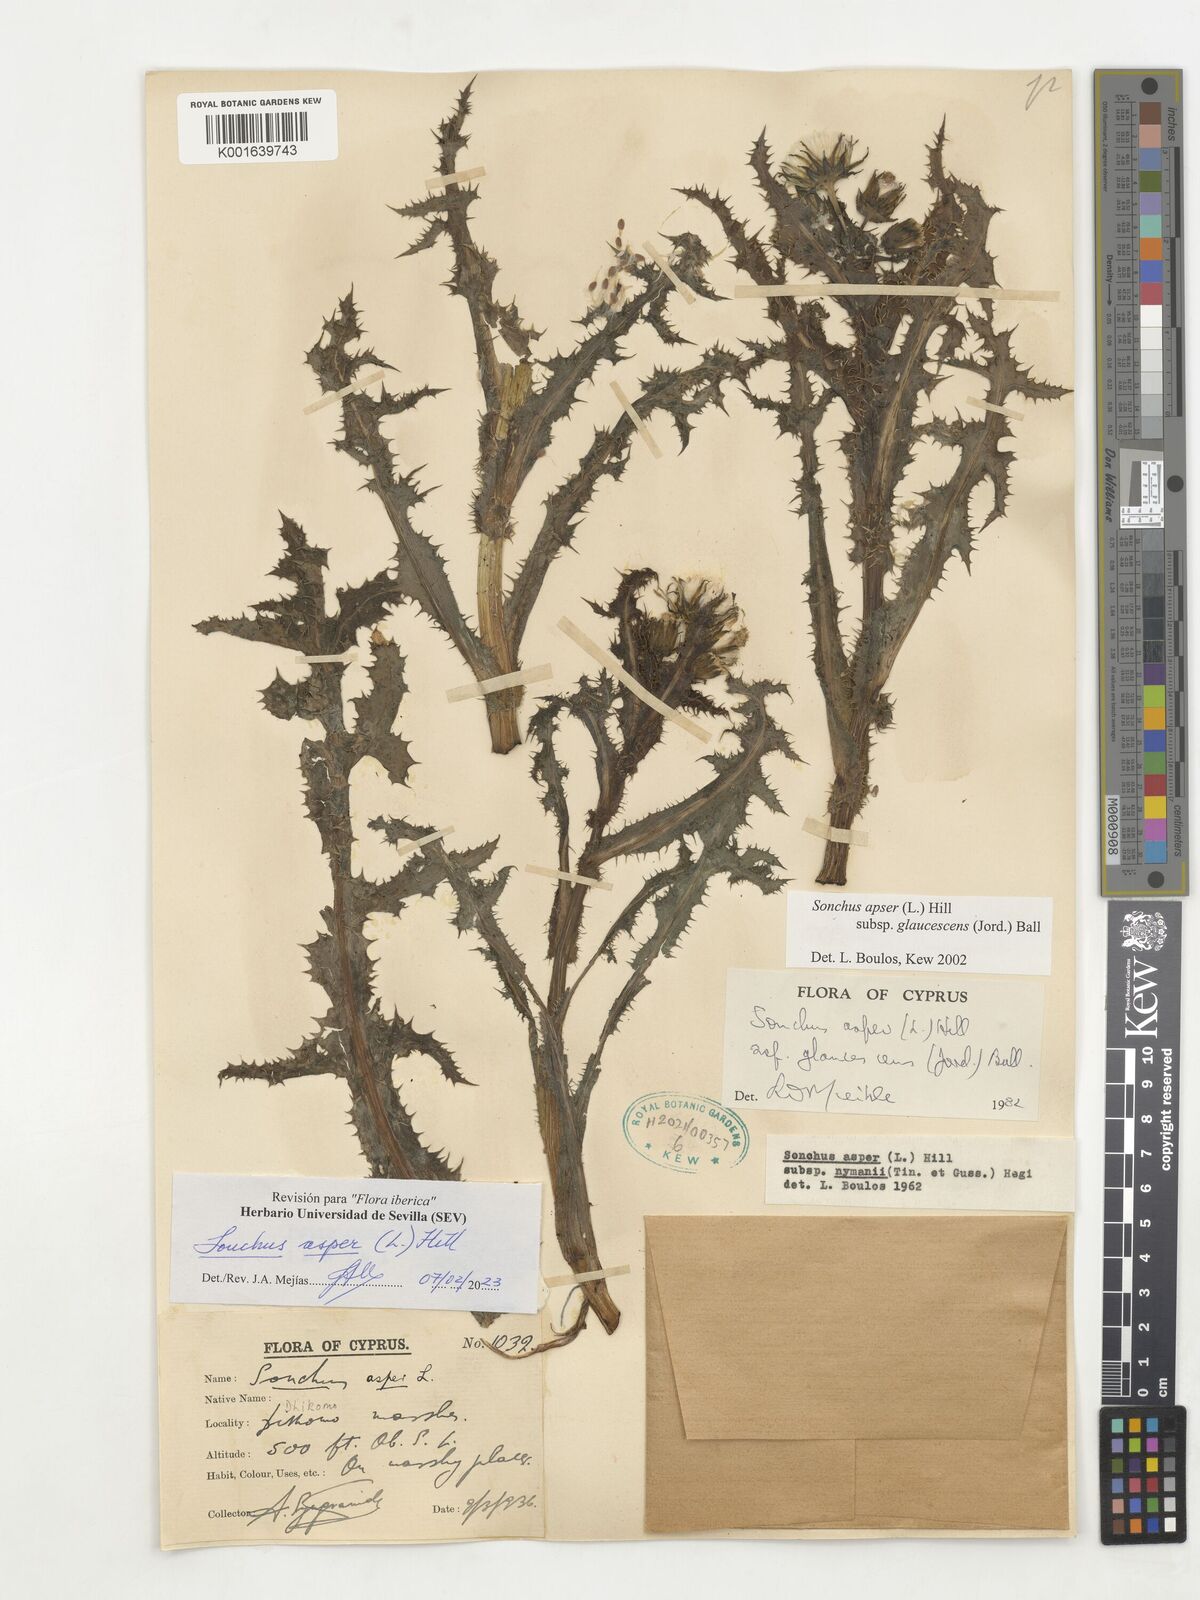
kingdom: Plantae
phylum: Tracheophyta
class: Magnoliopsida
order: Asterales
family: Asteraceae
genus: Sonchus
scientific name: Sonchus asper
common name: Prickly sow-thistle
